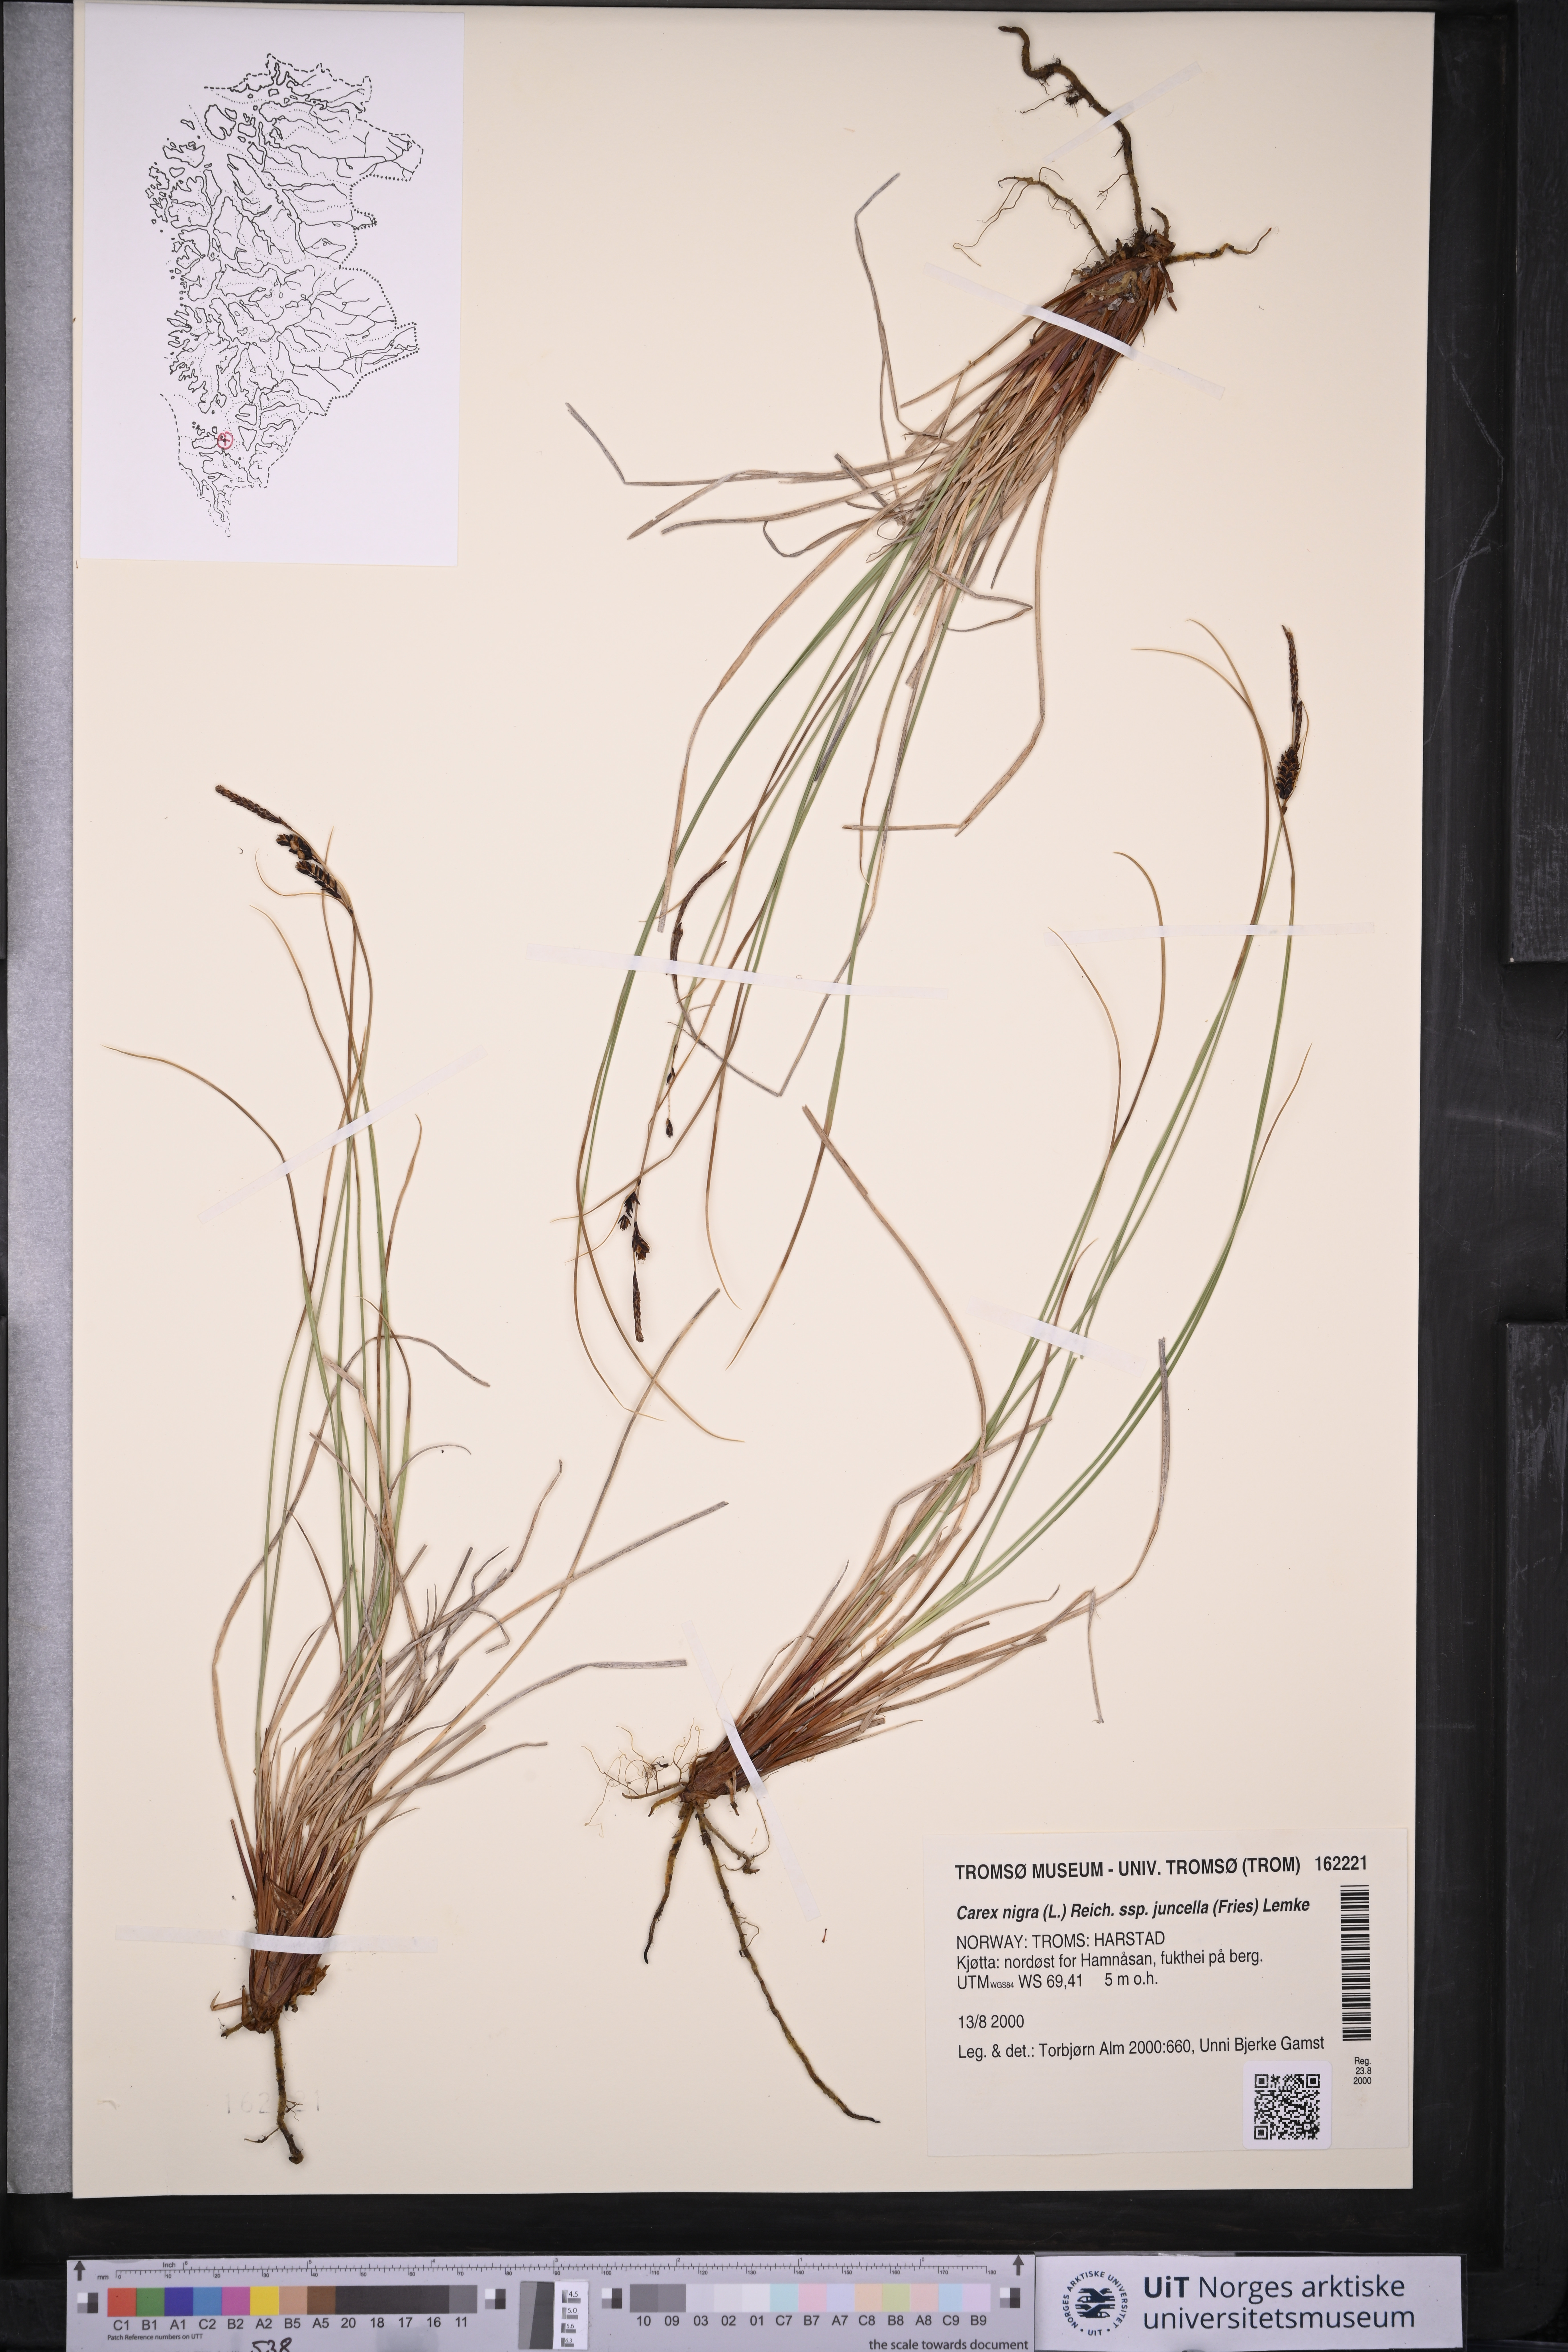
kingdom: Plantae
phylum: Tracheophyta
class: Liliopsida
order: Poales
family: Cyperaceae
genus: Carex
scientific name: Carex nigra
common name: Common sedge
